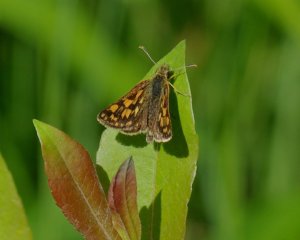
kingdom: Animalia
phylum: Arthropoda
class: Insecta
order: Lepidoptera
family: Hesperiidae
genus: Carterocephalus
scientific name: Carterocephalus palaemon
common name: Chequered Skipper
